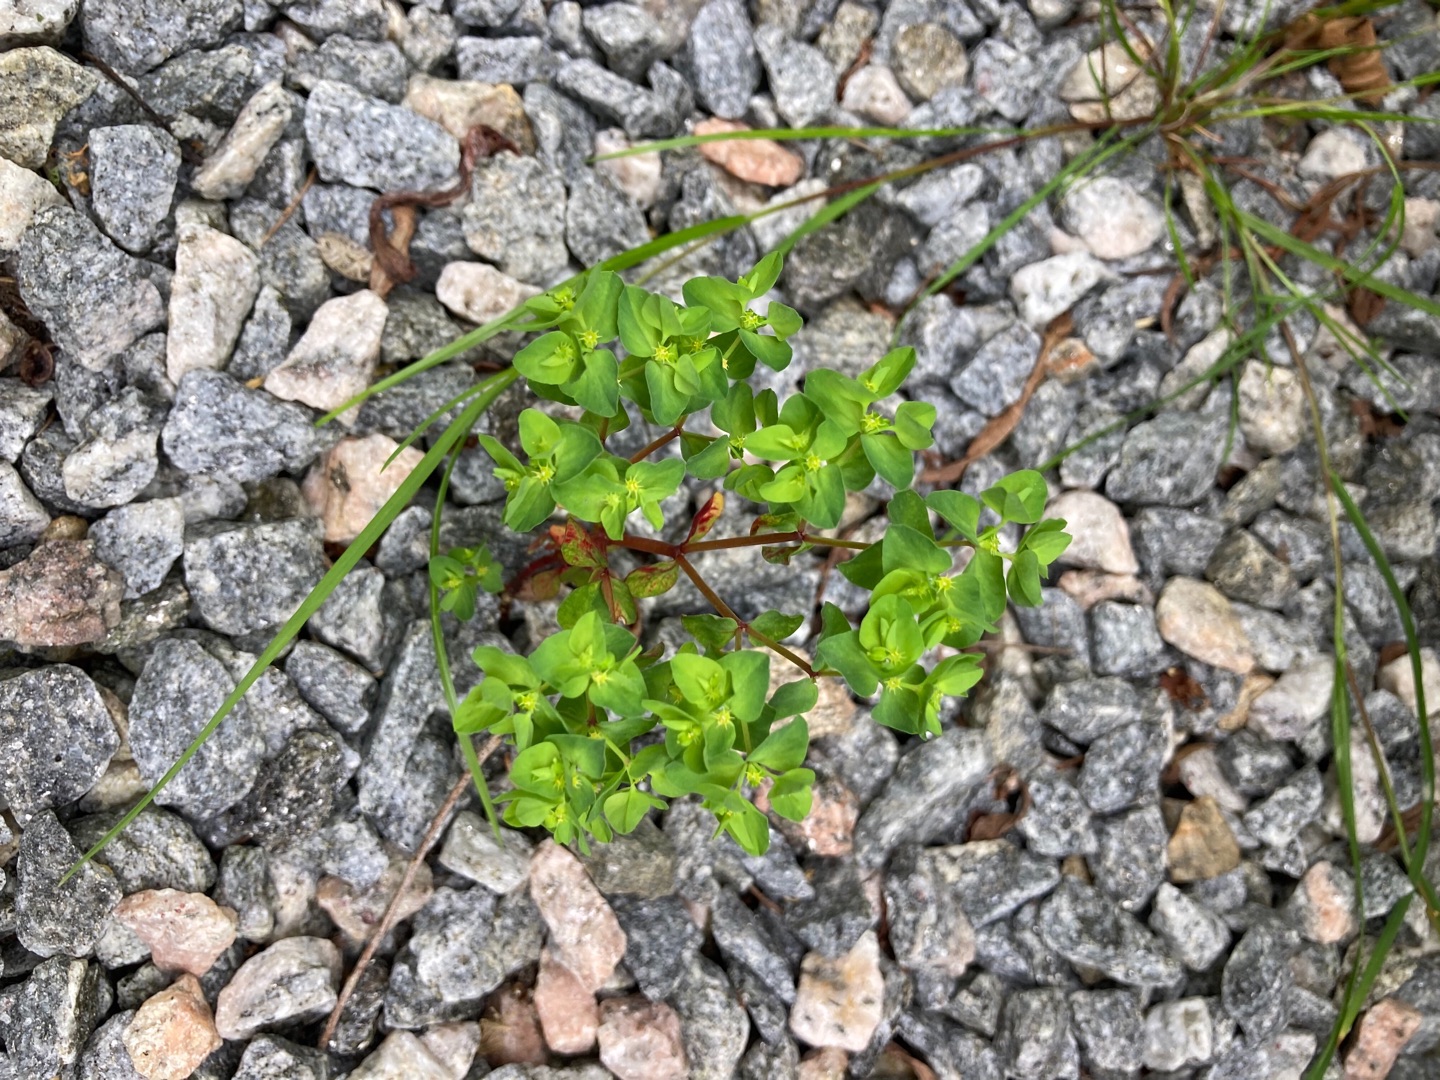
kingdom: Plantae
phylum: Tracheophyta
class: Magnoliopsida
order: Malpighiales
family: Euphorbiaceae
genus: Euphorbia
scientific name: Euphorbia peplus
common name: Gaffel-vortemælk
